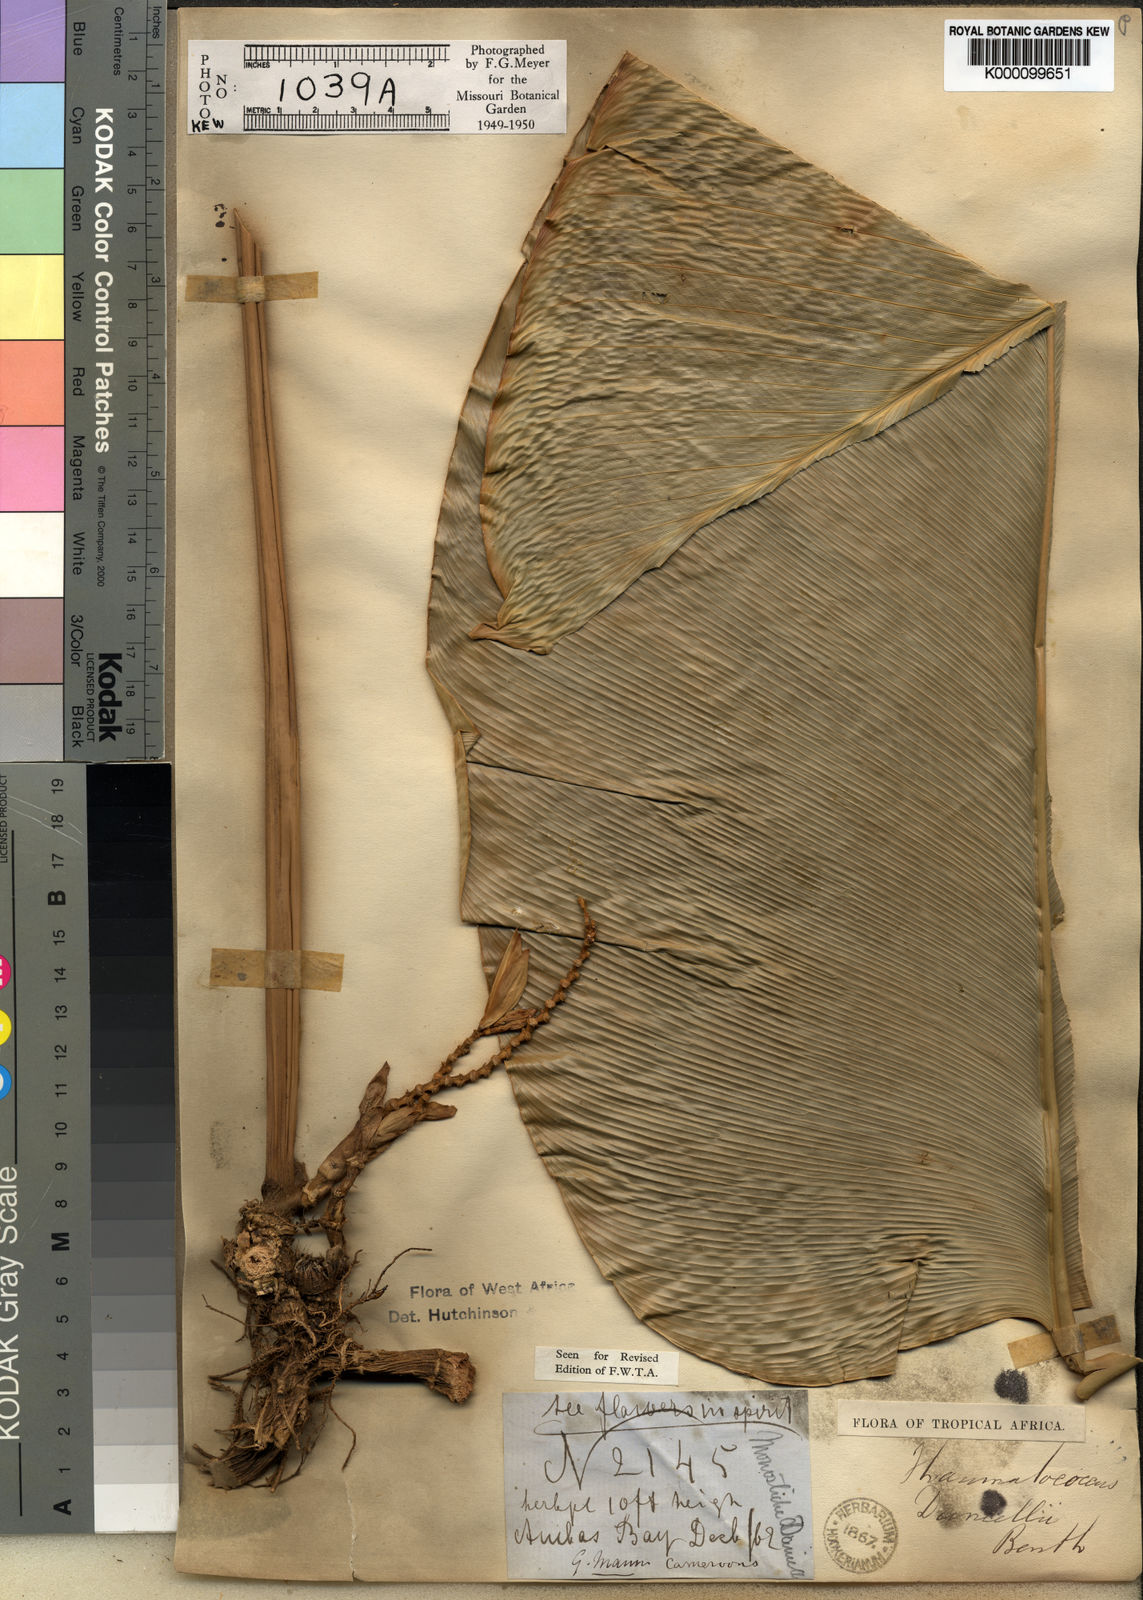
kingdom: Plantae
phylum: Tracheophyta
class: Liliopsida
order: Zingiberales
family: Marantaceae
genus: Thaumatococcus
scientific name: Thaumatococcus
